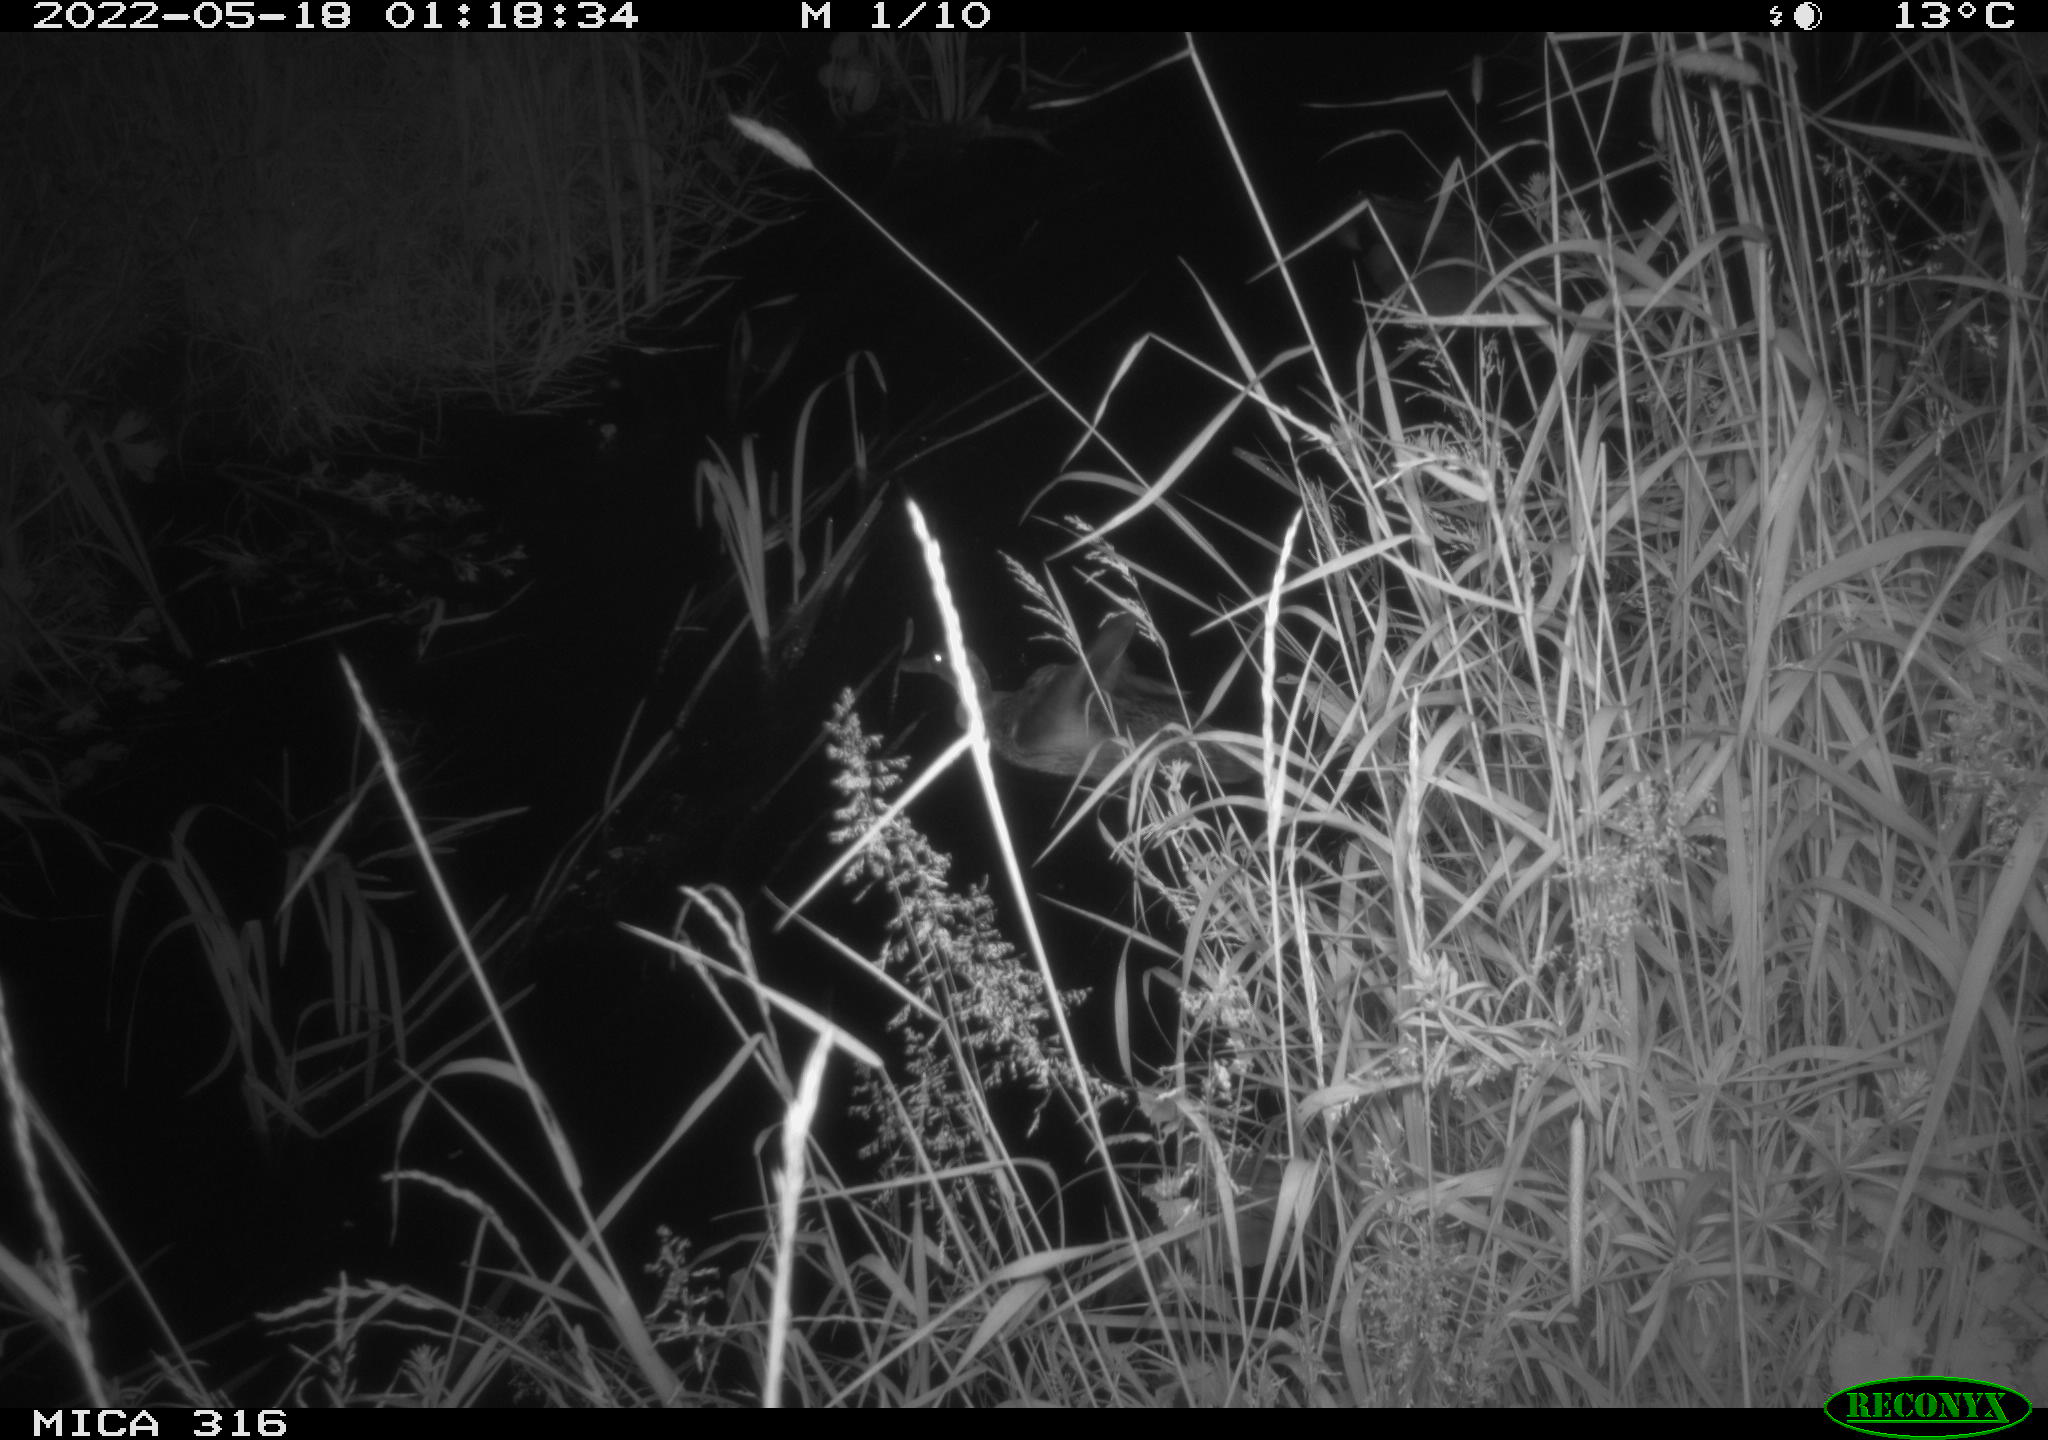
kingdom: Animalia
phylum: Chordata
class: Aves
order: Anseriformes
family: Anatidae
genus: Anas
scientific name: Anas
